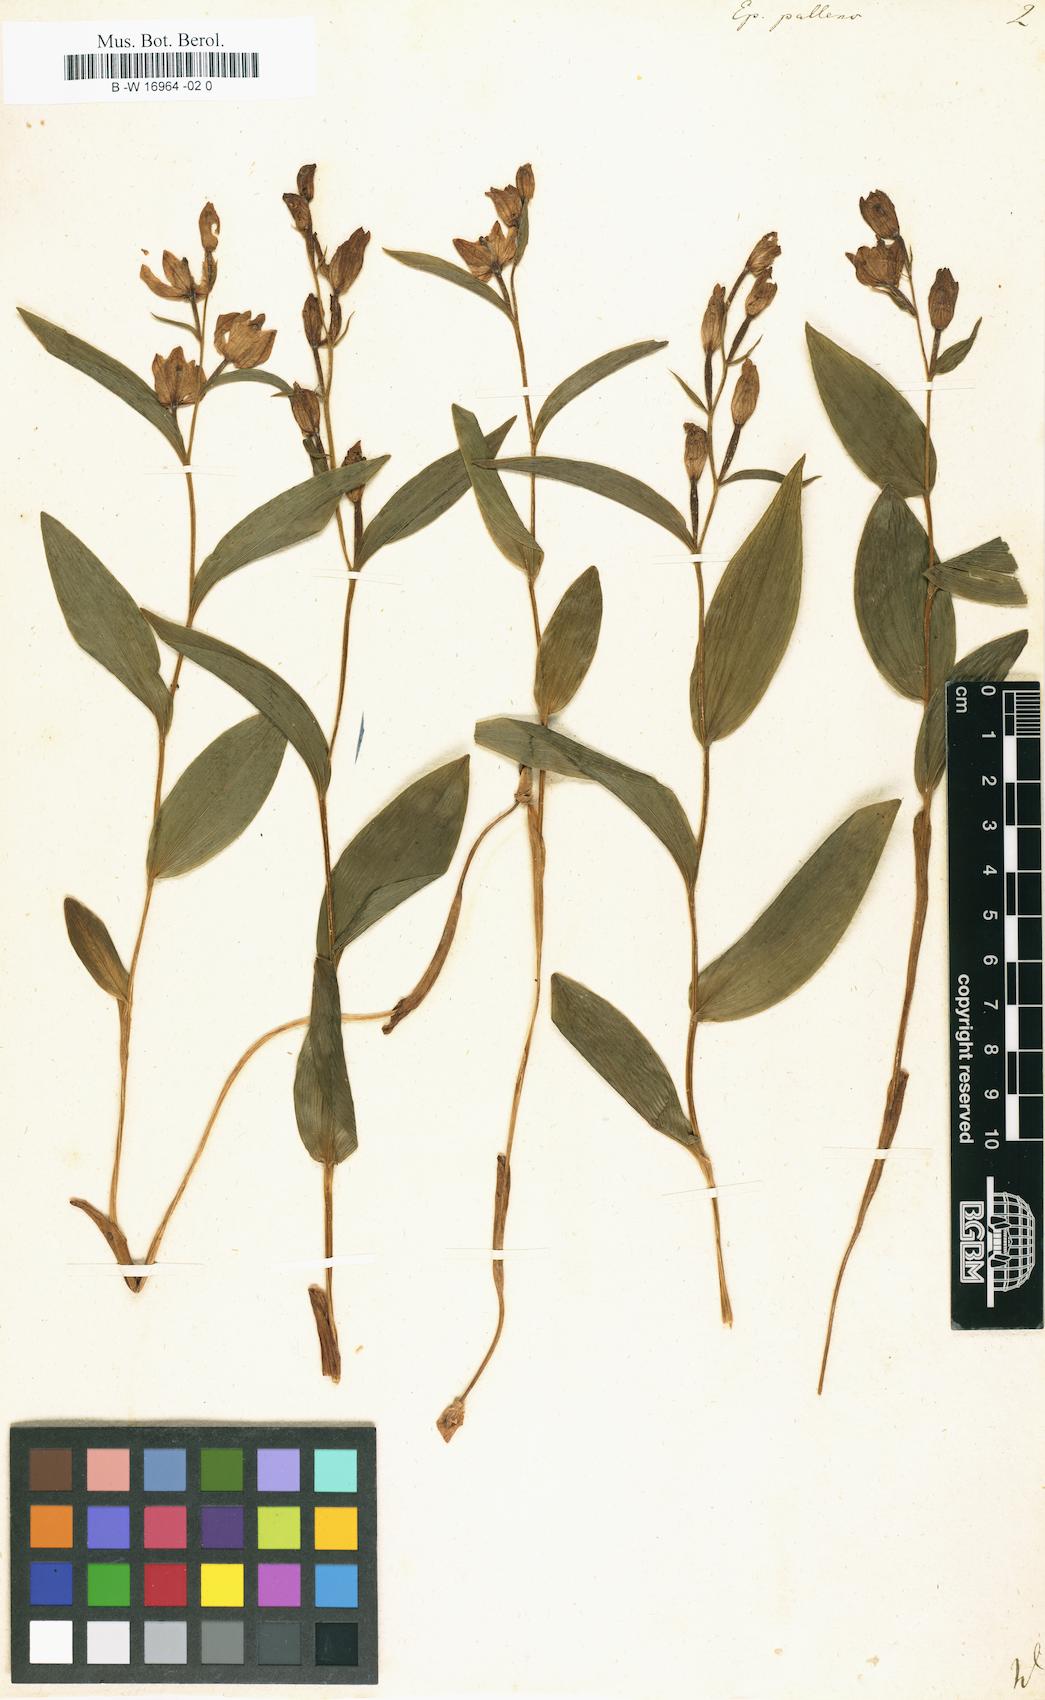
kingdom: Plantae
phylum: Tracheophyta
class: Liliopsida
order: Asparagales
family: Orchidaceae
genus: Cephalanthera
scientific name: Cephalanthera longifolia
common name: Narrow-leaved helleborine
